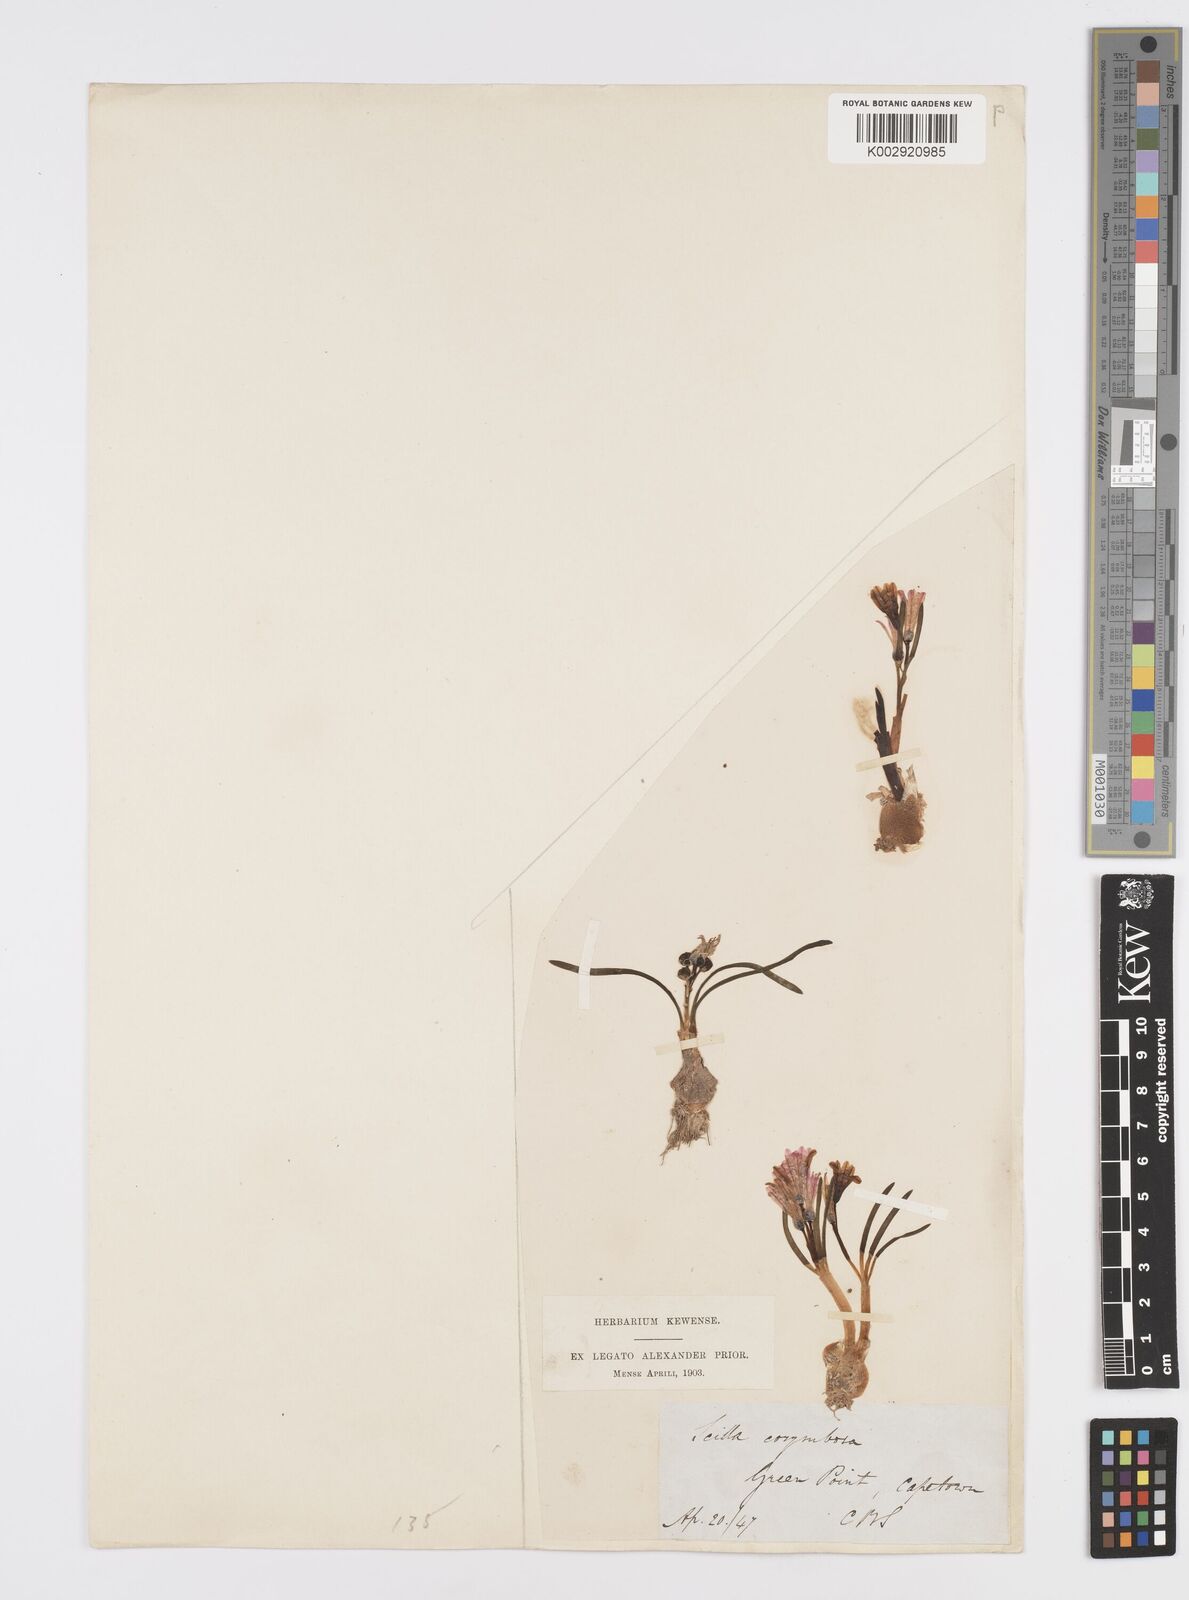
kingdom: Plantae
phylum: Tracheophyta
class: Liliopsida
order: Asparagales
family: Asparagaceae
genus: Lachenalia
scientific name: Lachenalia corymbosa
